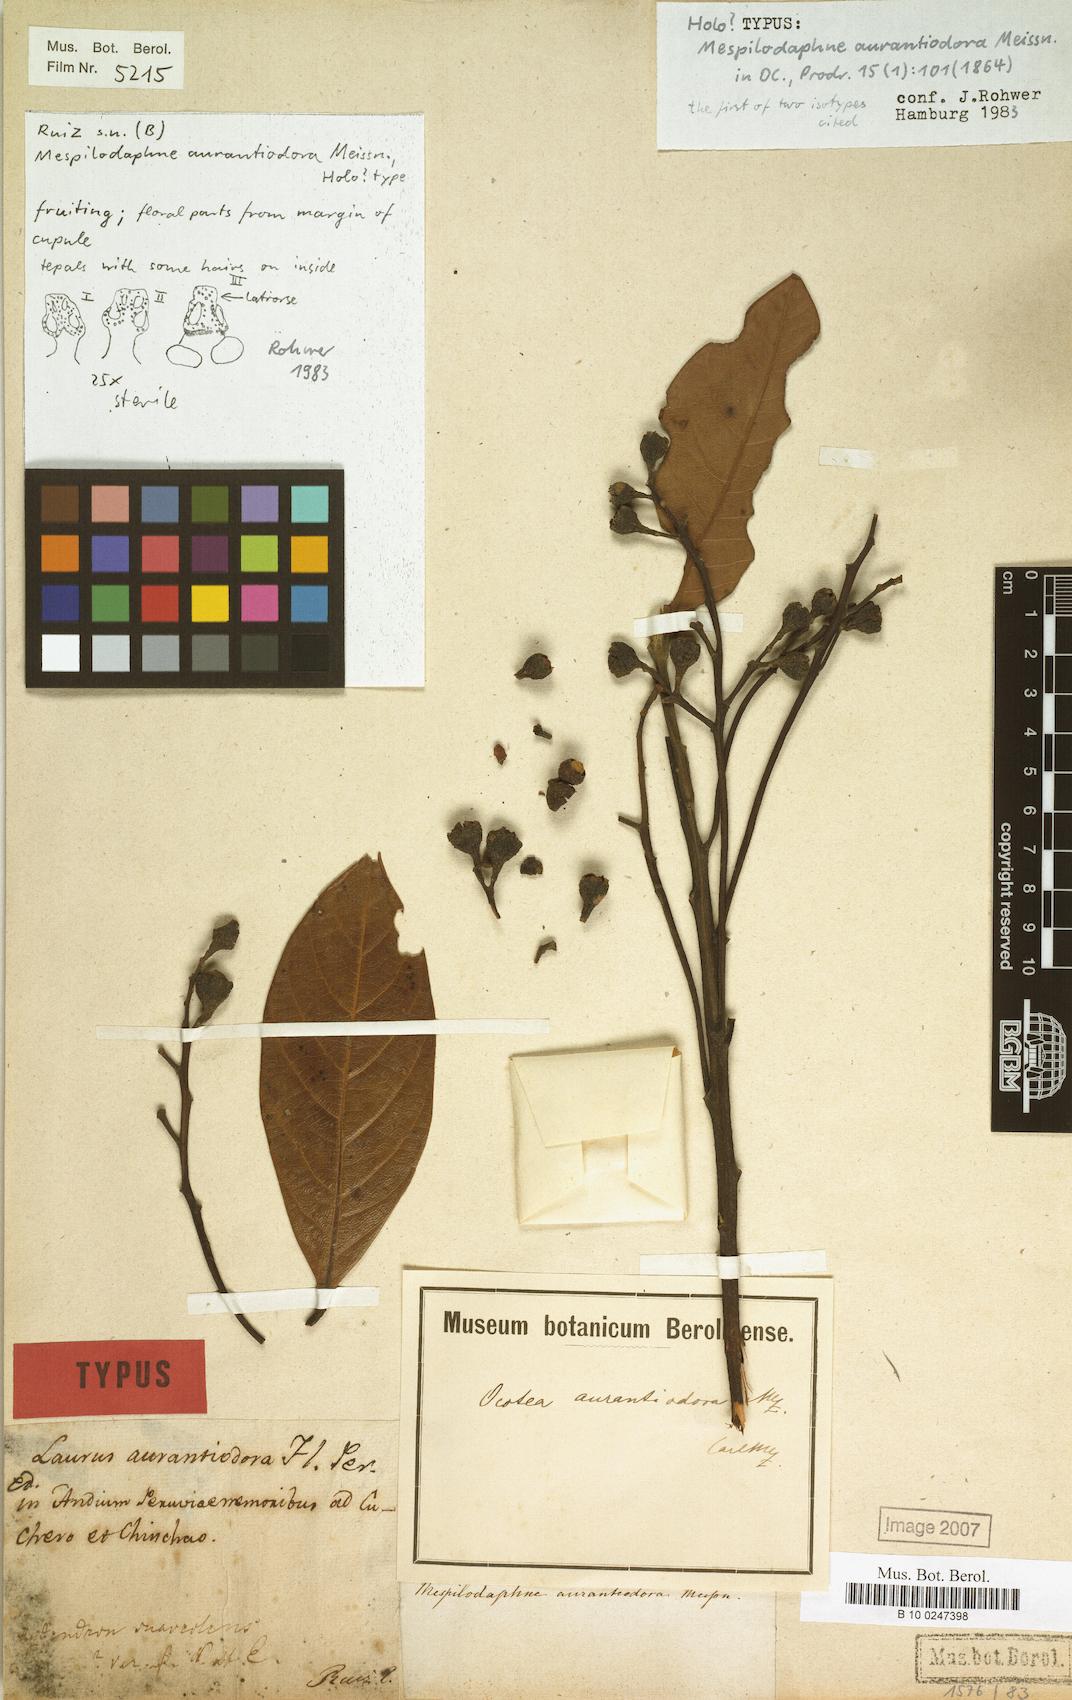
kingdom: Plantae
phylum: Tracheophyta
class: Magnoliopsida
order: Laurales
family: Lauraceae
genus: Mespilodaphne
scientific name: Mespilodaphne aurantiodora
